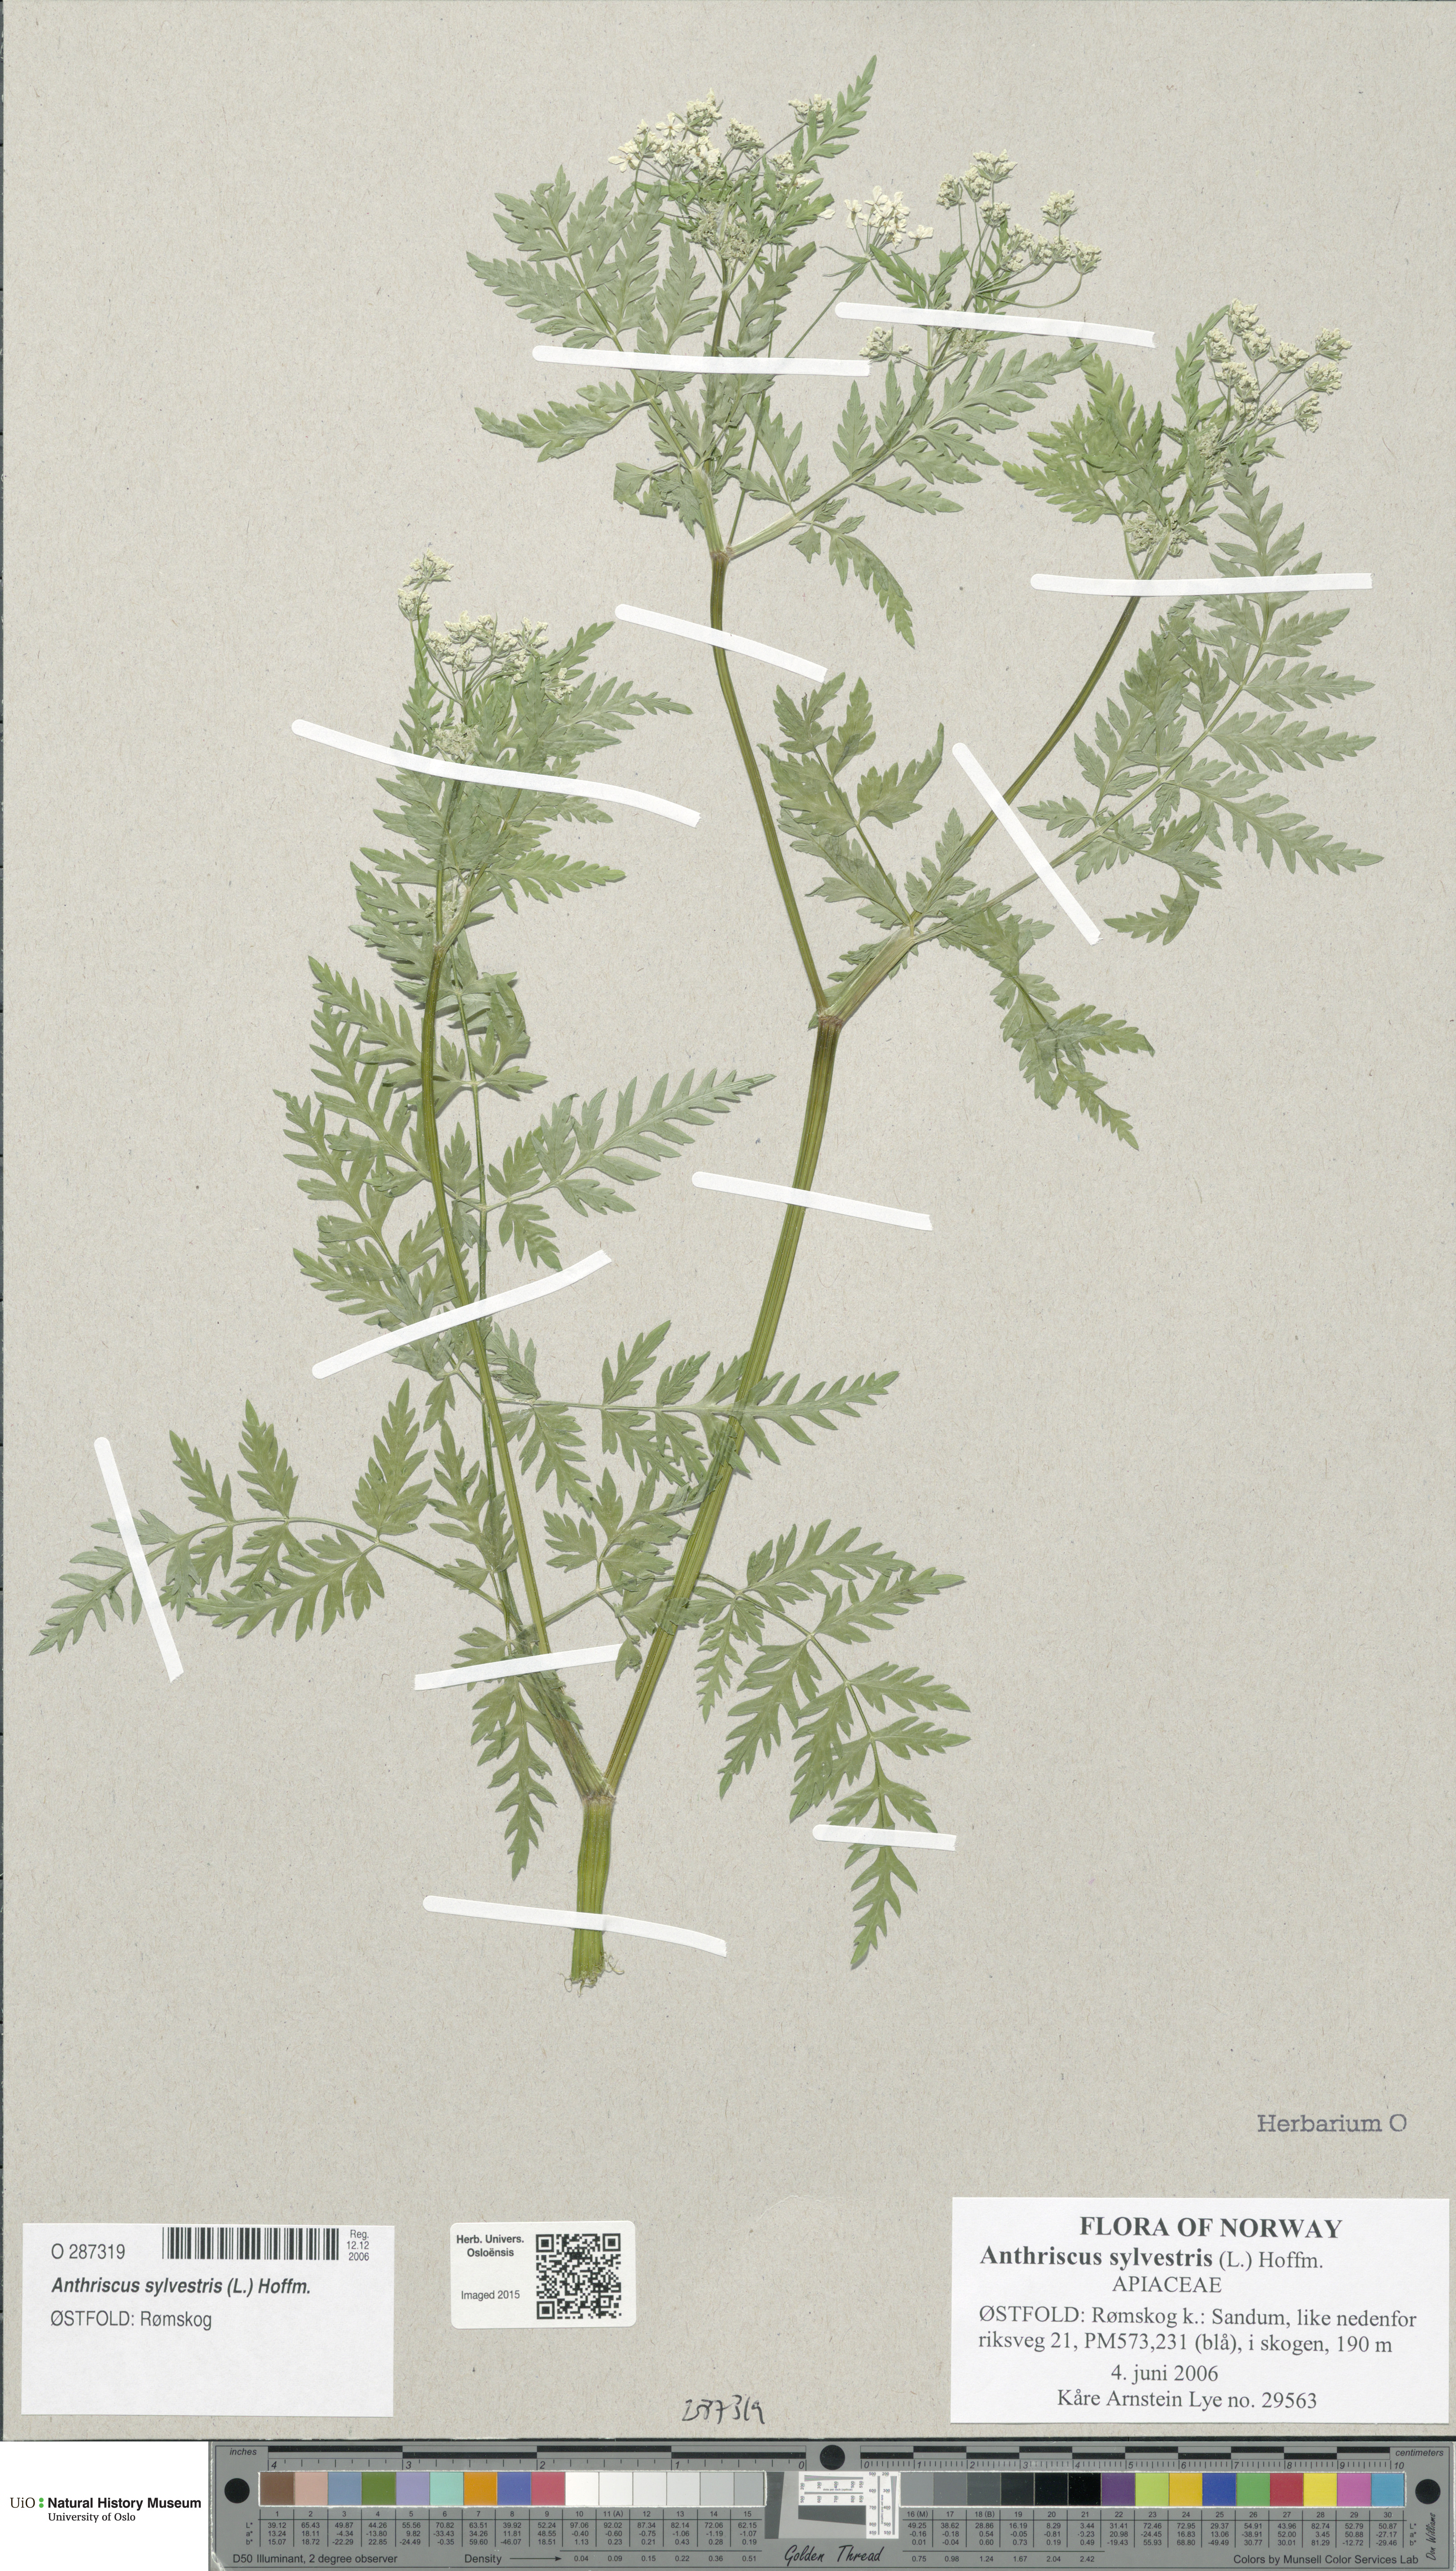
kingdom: Plantae
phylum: Tracheophyta
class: Magnoliopsida
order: Apiales
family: Apiaceae
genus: Anthriscus
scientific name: Anthriscus sylvestris
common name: Cow parsley
